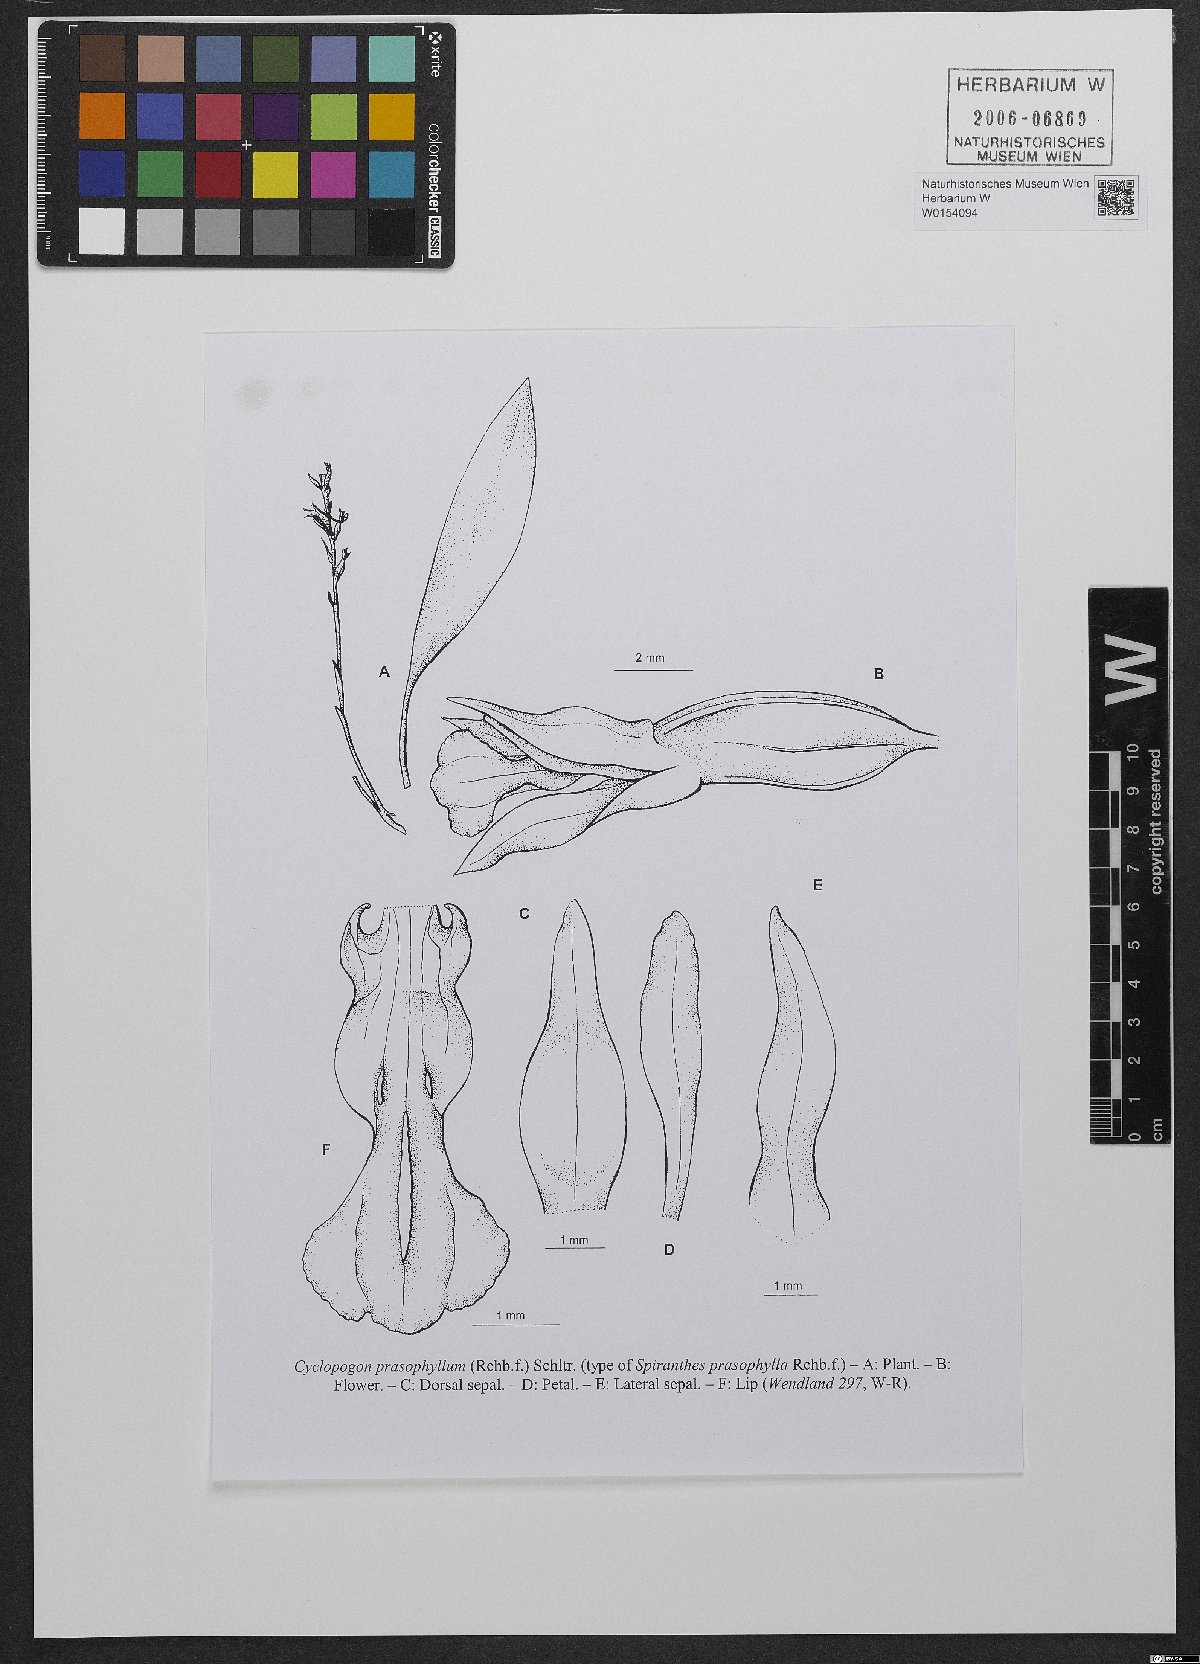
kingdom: Plantae
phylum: Tracheophyta
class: Liliopsida
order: Asparagales
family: Orchidaceae
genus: Cyclopogon
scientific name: Cyclopogon prasophyllus
